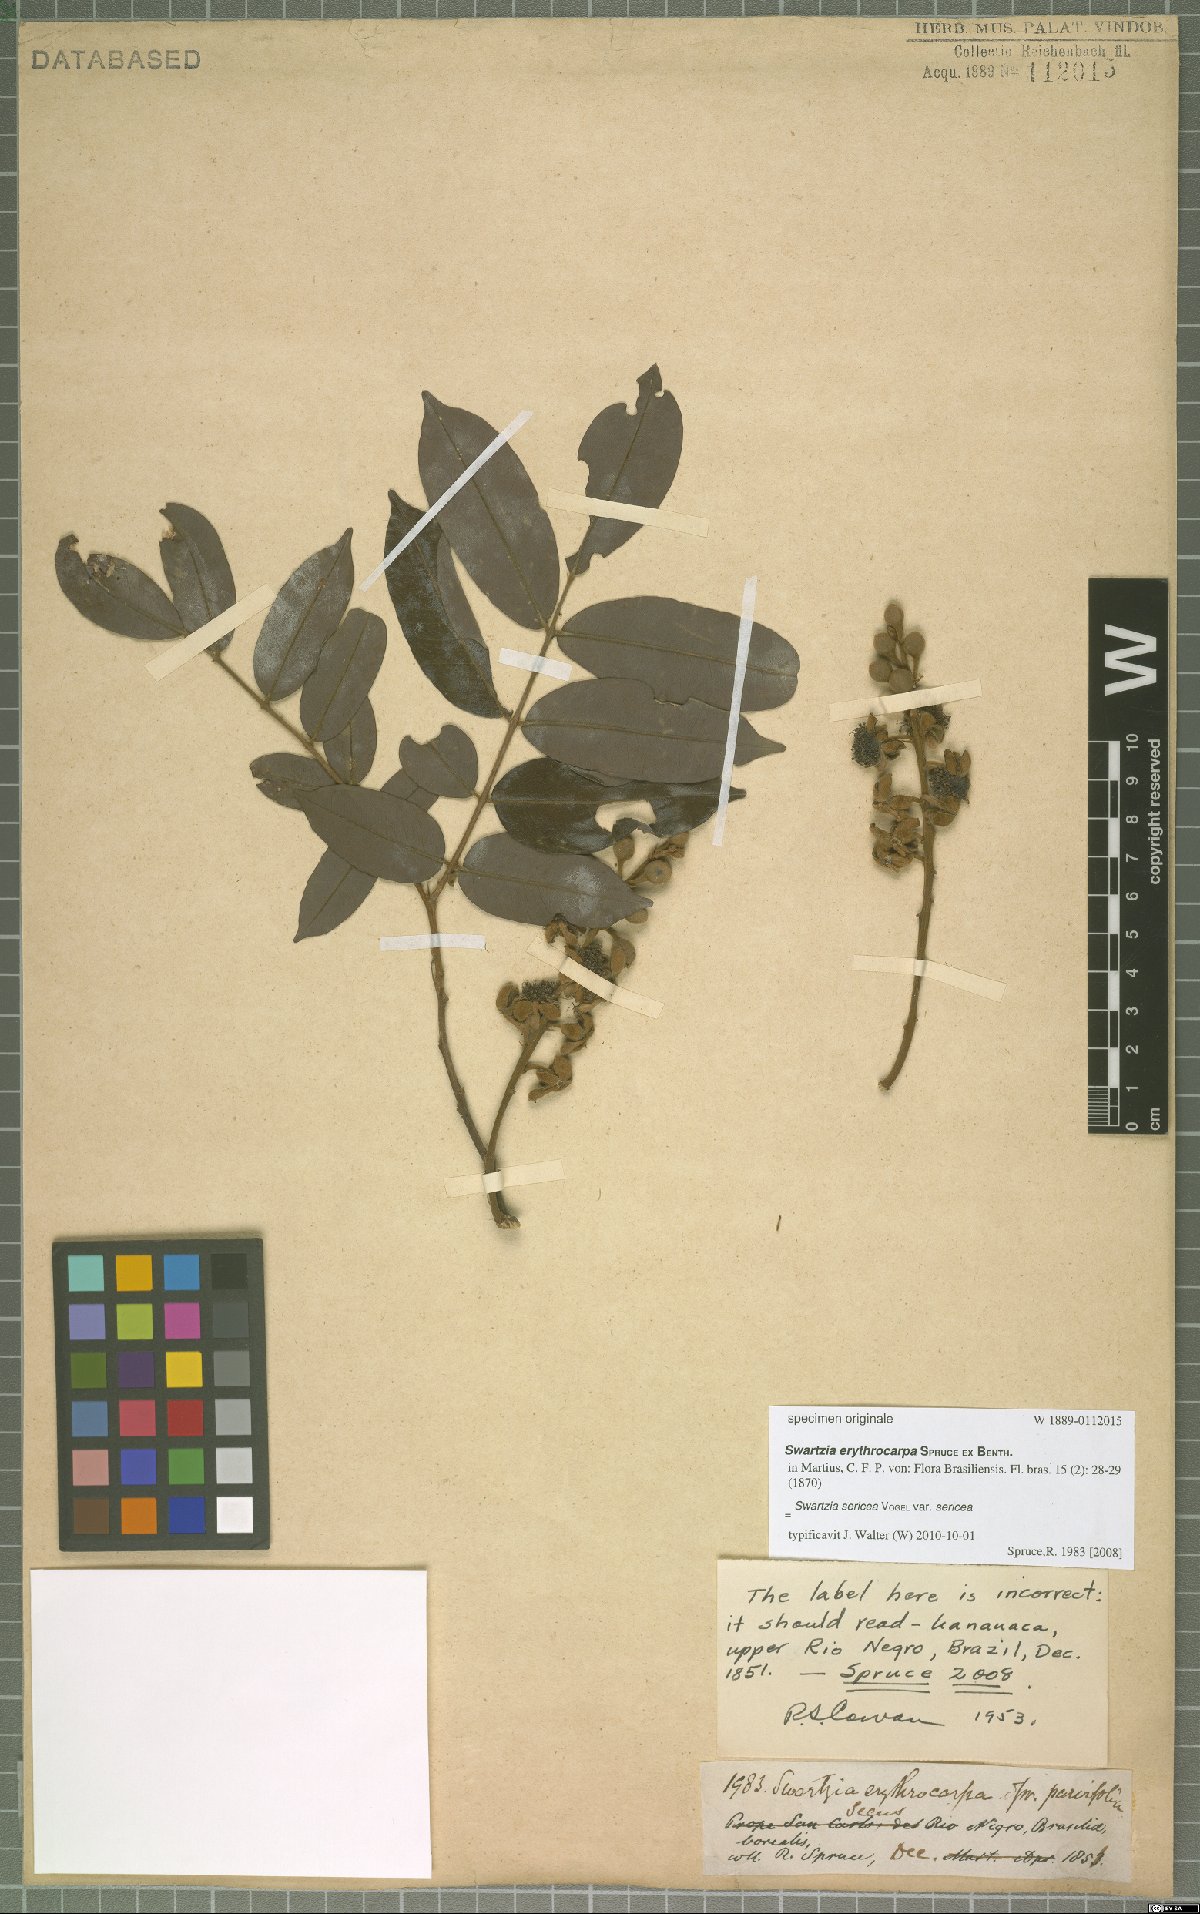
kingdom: Plantae
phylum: Tracheophyta
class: Magnoliopsida
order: Fabales
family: Fabaceae
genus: Swartzia
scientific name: Swartzia sericea
